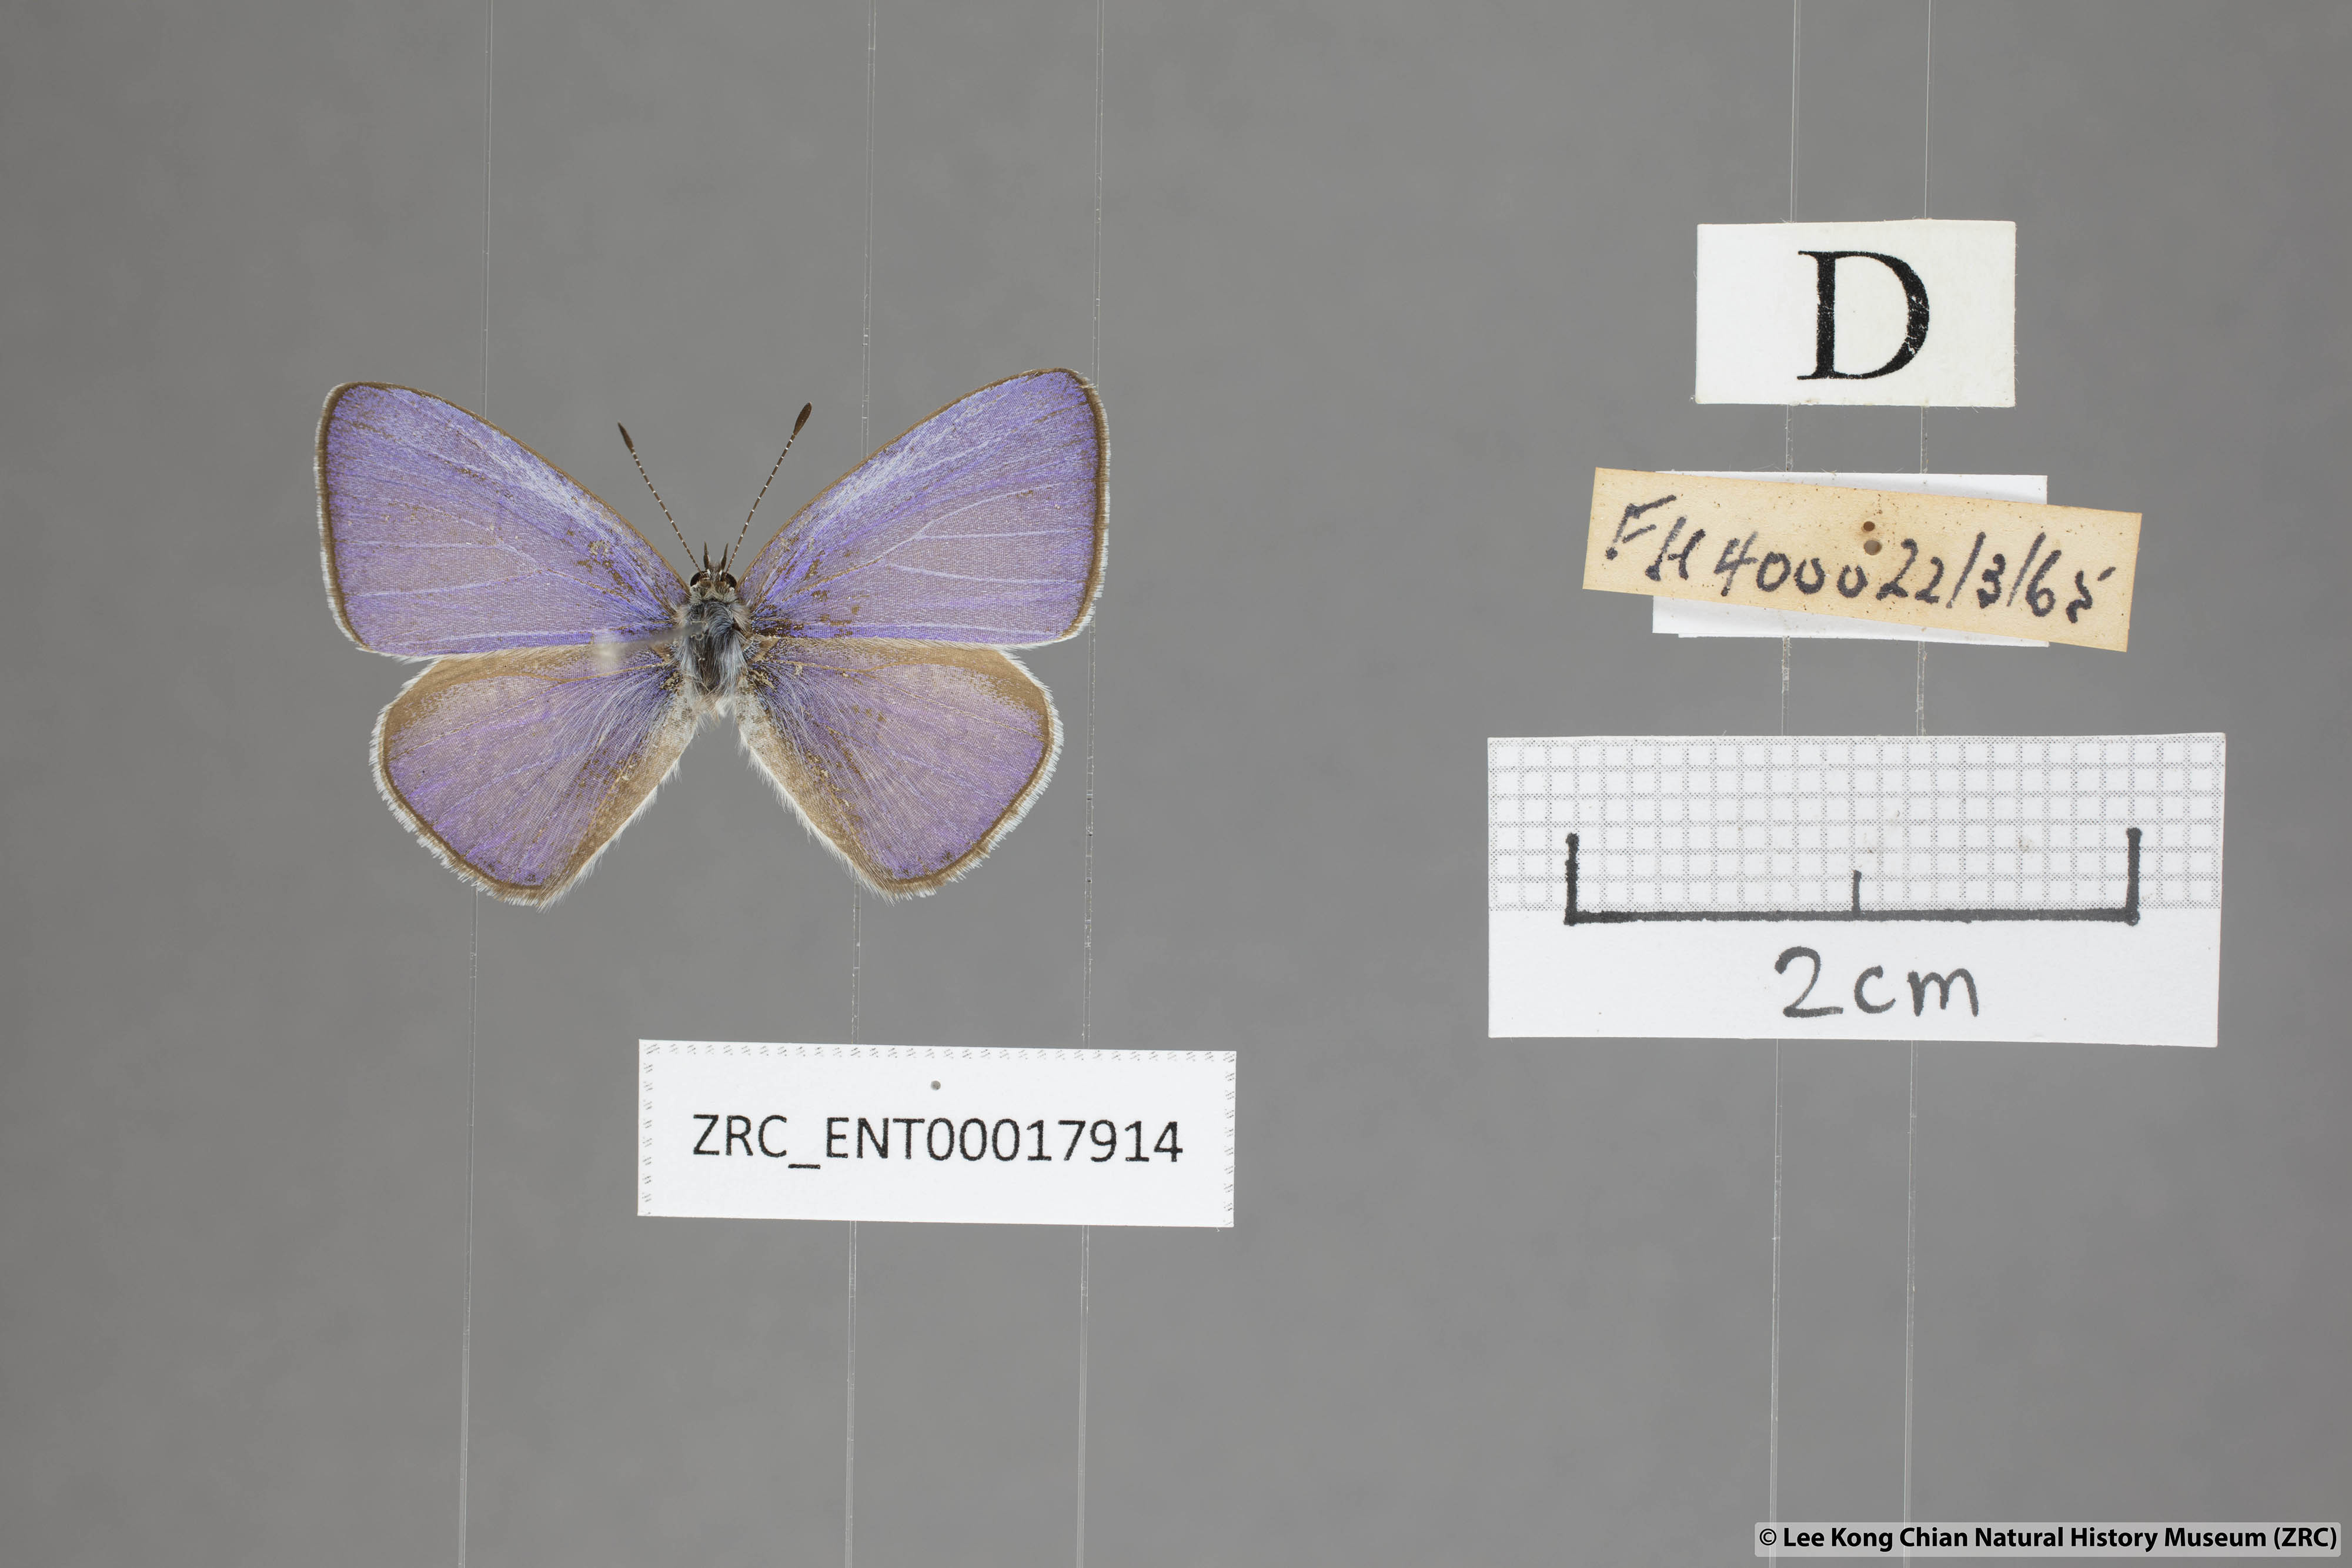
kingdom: Animalia
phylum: Arthropoda
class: Insecta
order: Lepidoptera
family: Lycaenidae
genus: Udara
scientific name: Udara
